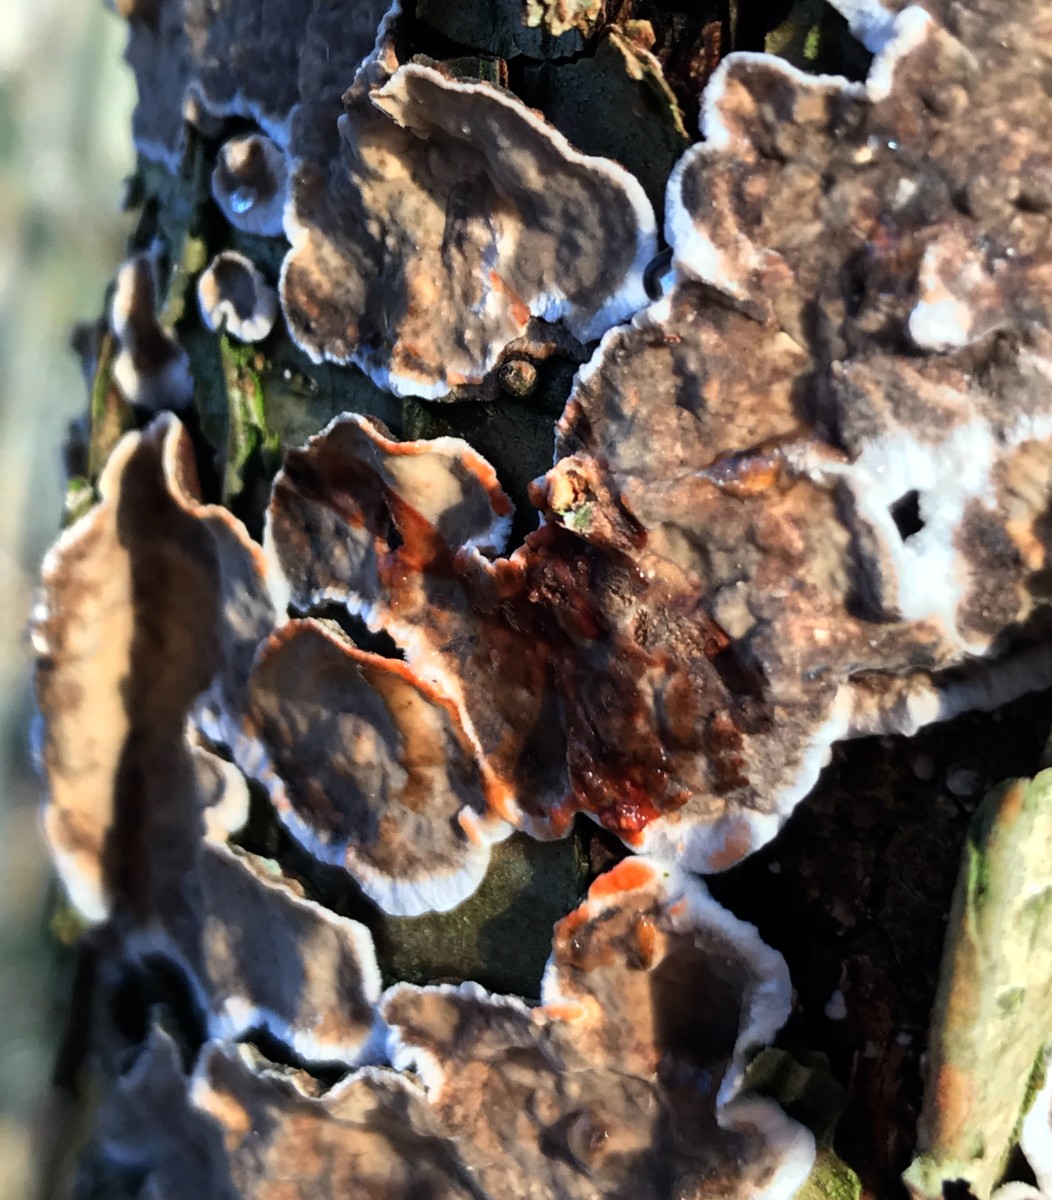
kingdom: Fungi
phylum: Basidiomycota
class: Agaricomycetes
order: Russulales
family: Stereaceae
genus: Stereum
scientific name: Stereum rugosum
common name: rynket lædersvamp
